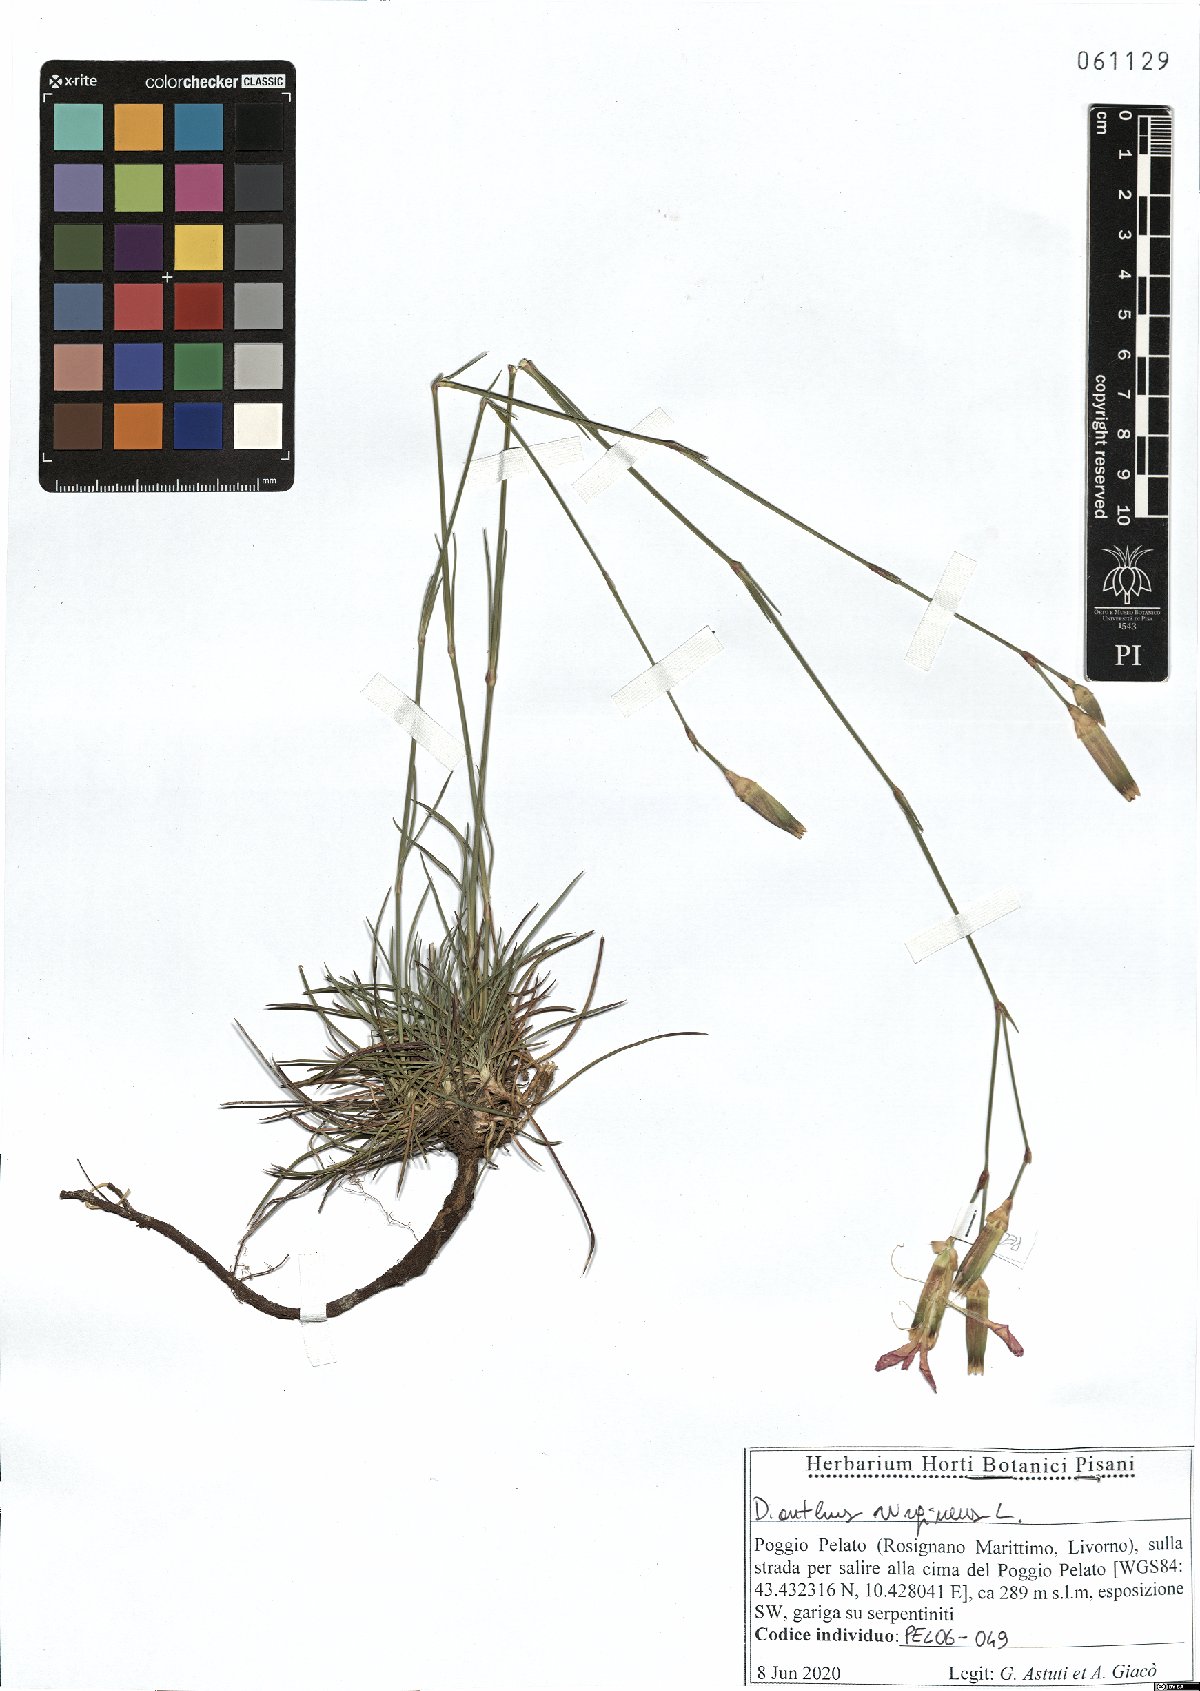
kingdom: Plantae
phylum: Tracheophyta
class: Magnoliopsida
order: Caryophyllales
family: Caryophyllaceae
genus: Dianthus
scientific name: Dianthus virgineus
